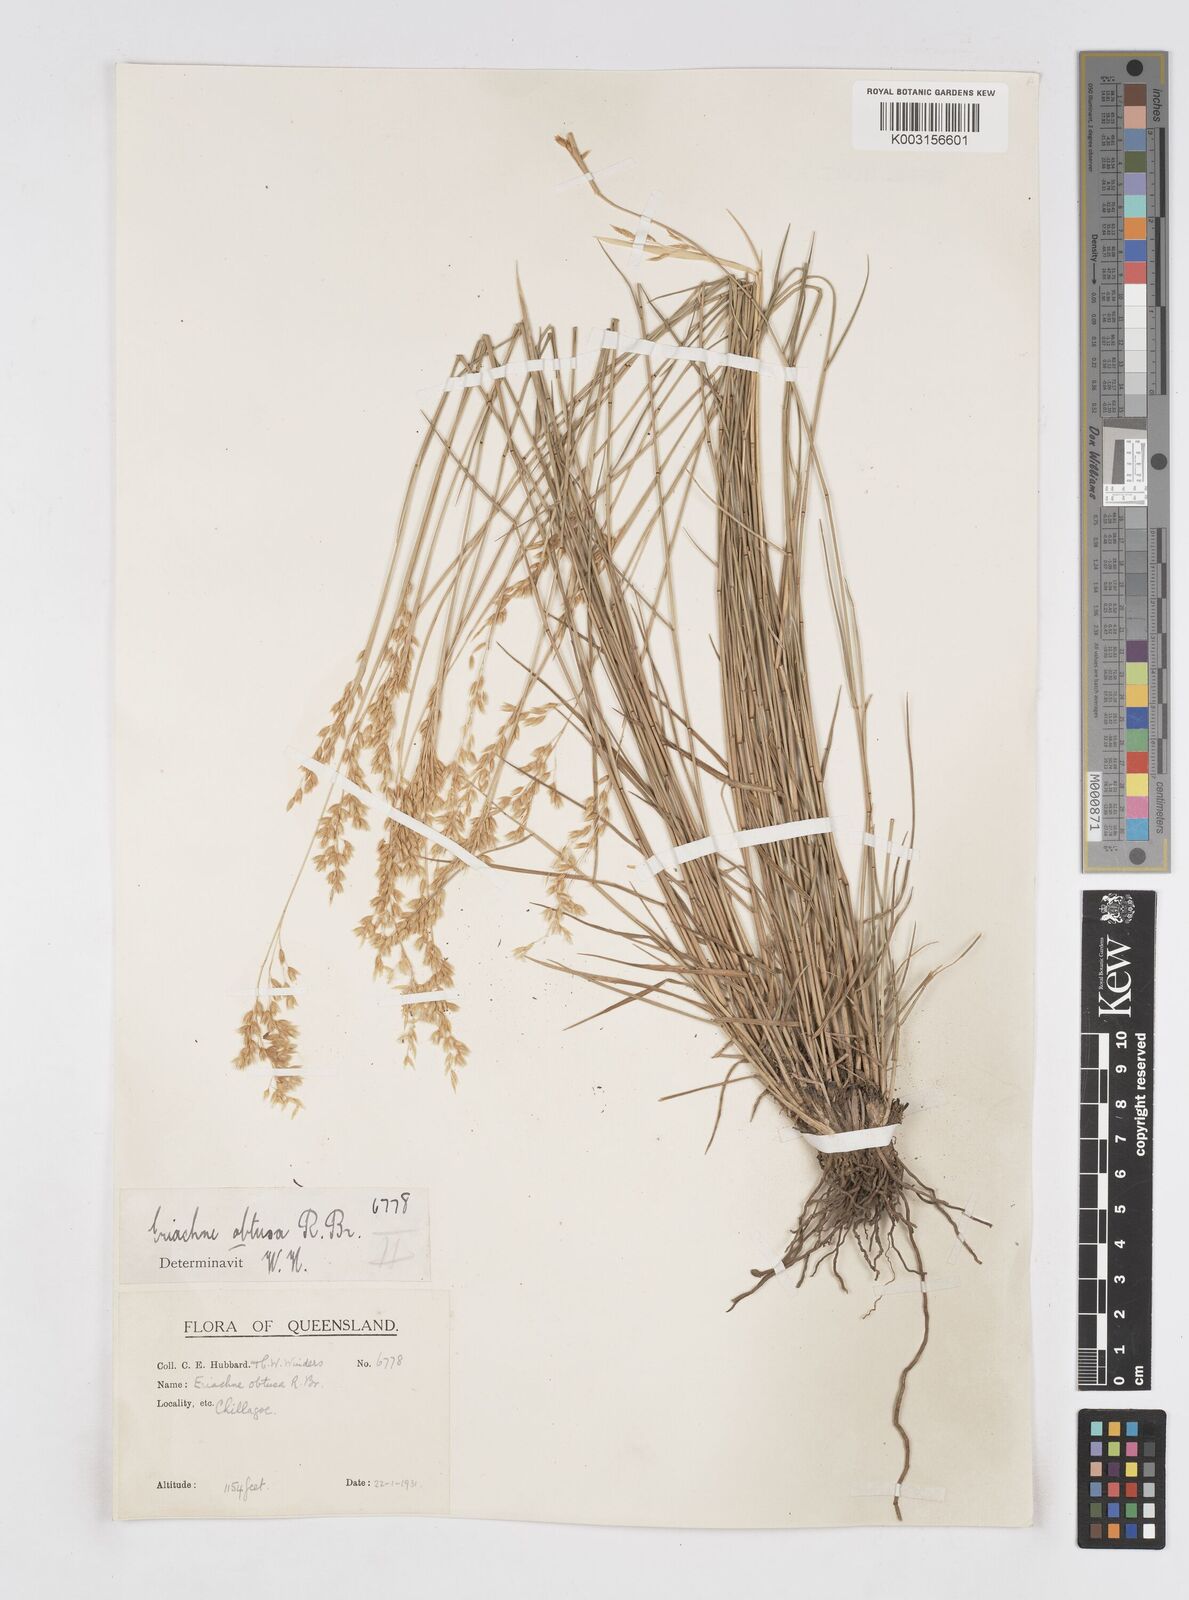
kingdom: Plantae
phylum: Tracheophyta
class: Liliopsida
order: Poales
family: Poaceae
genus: Eriachne
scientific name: Eriachne obtusa
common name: Northern wanderrie grass
